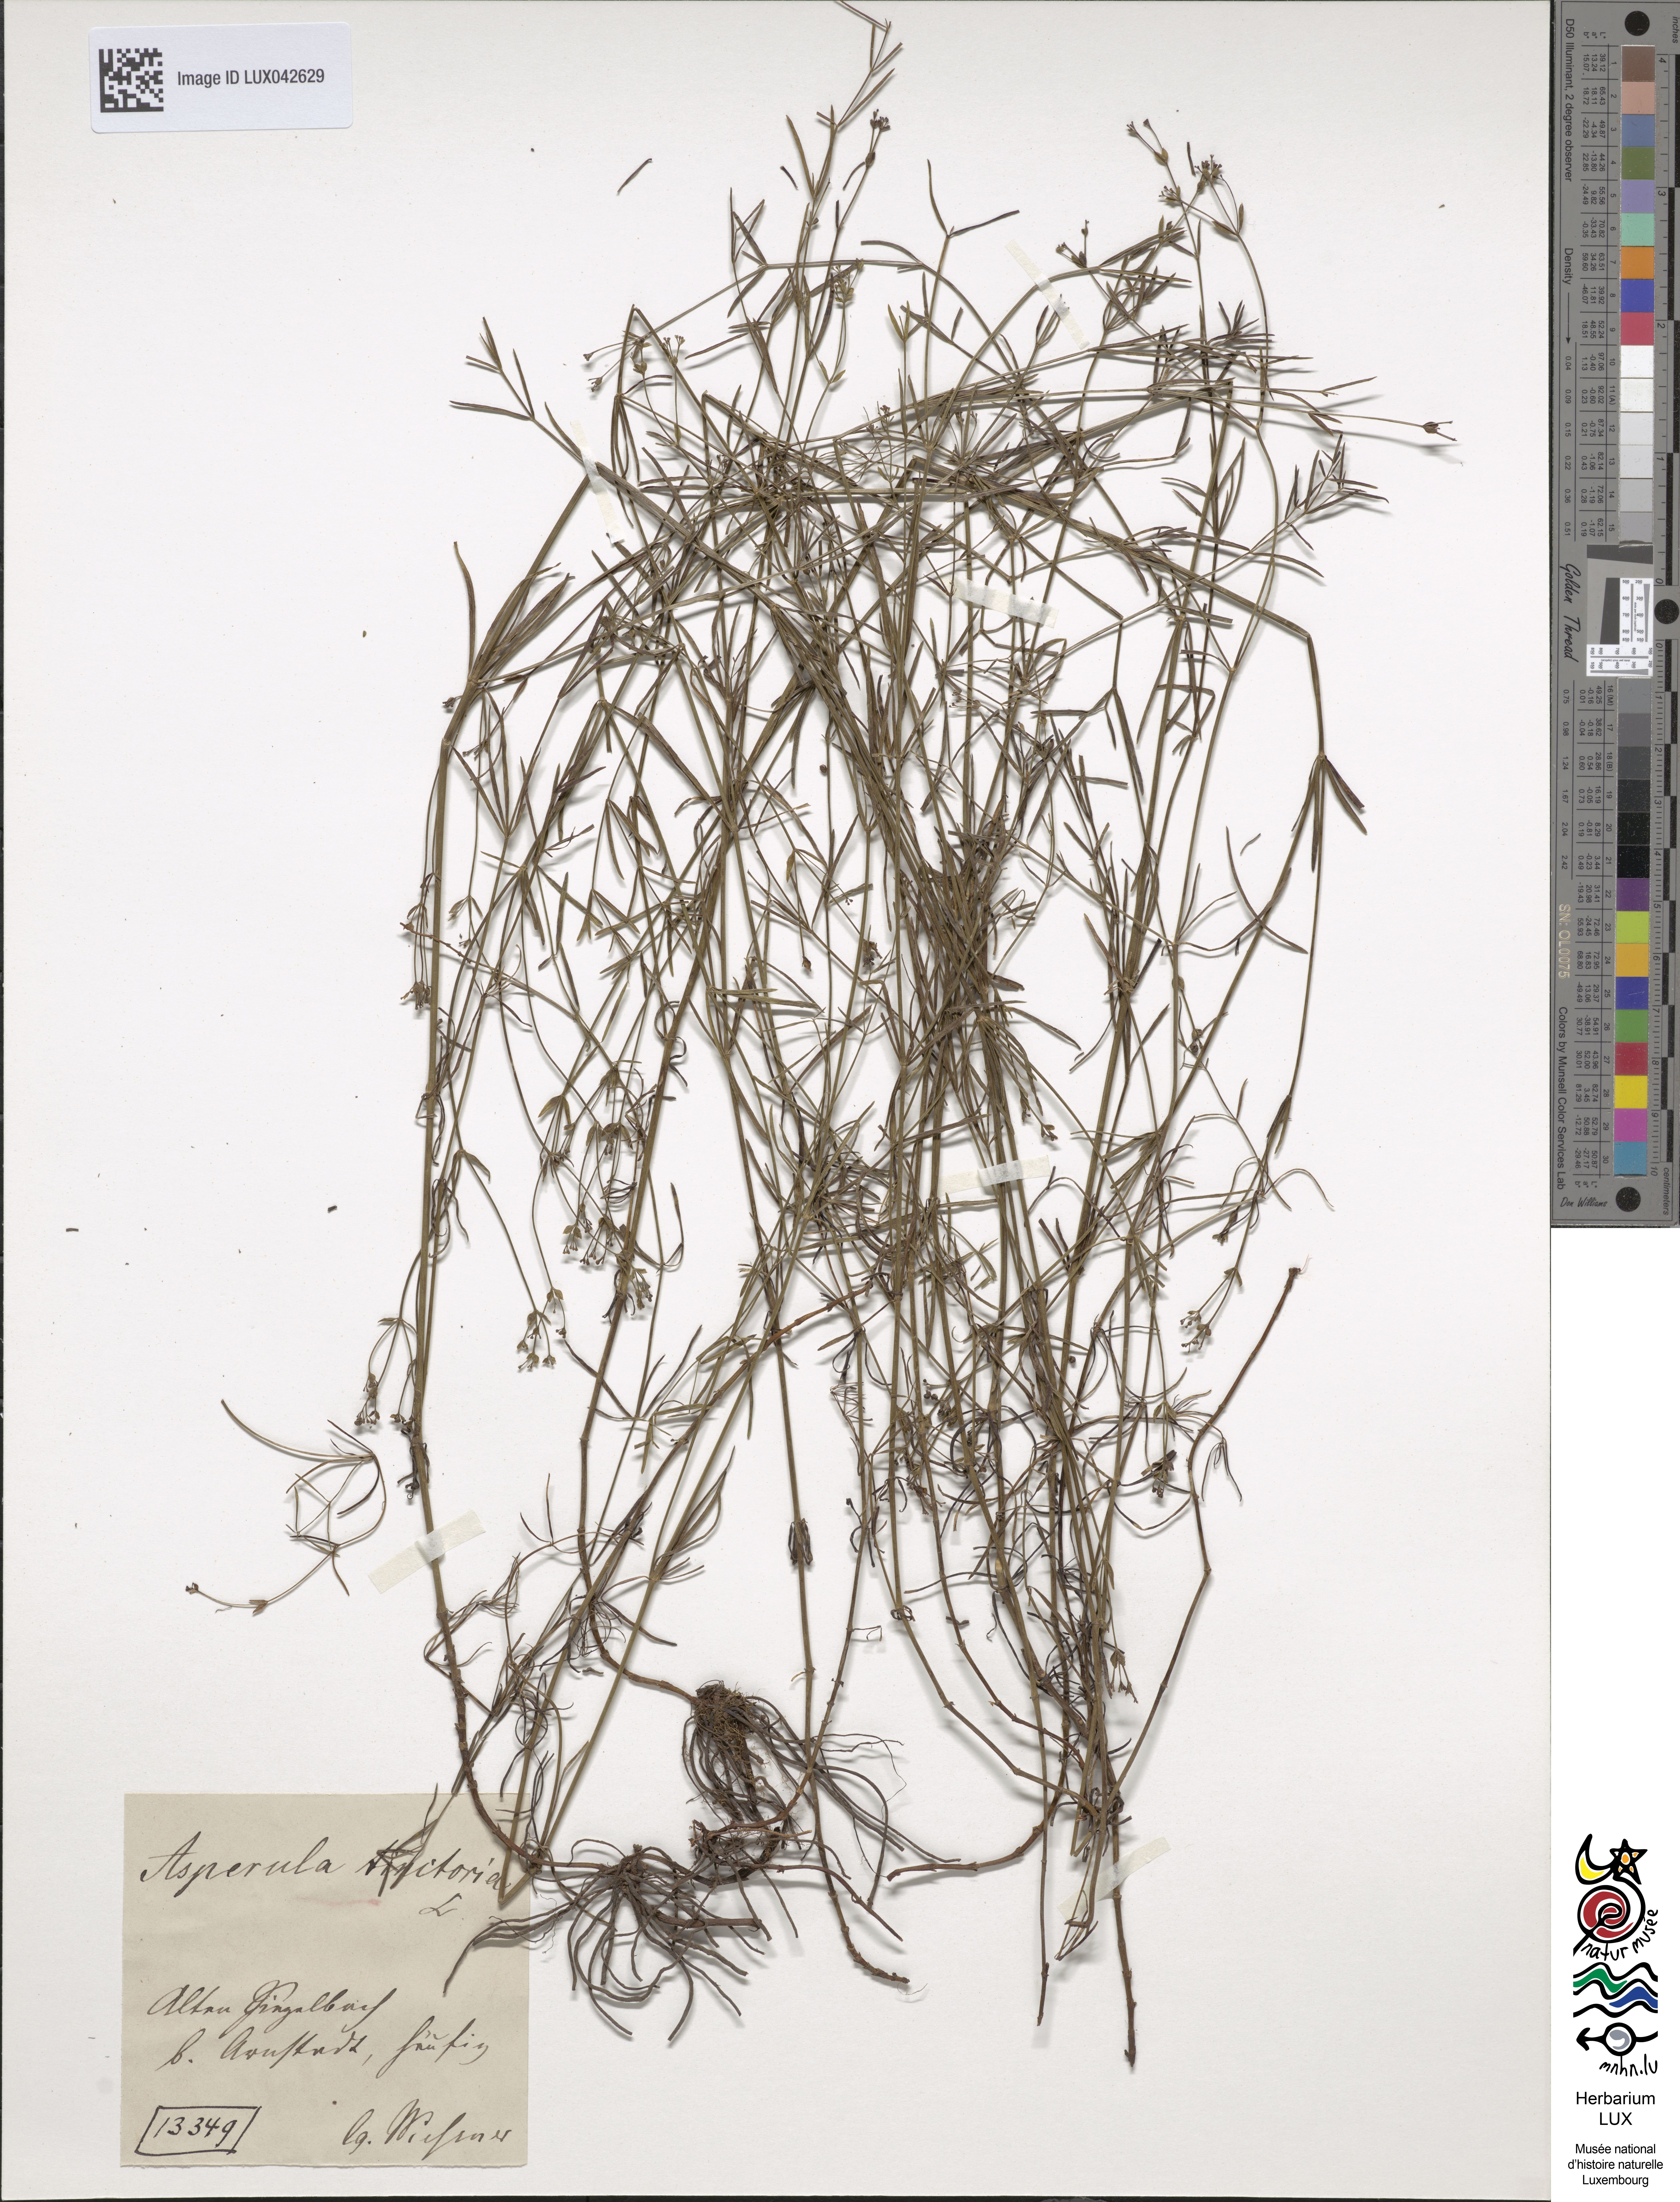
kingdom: Plantae
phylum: Tracheophyta
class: Magnoliopsida
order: Gentianales
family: Rubiaceae
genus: Asperula
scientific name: Asperula tinctoria
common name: Dyer's woodruff
